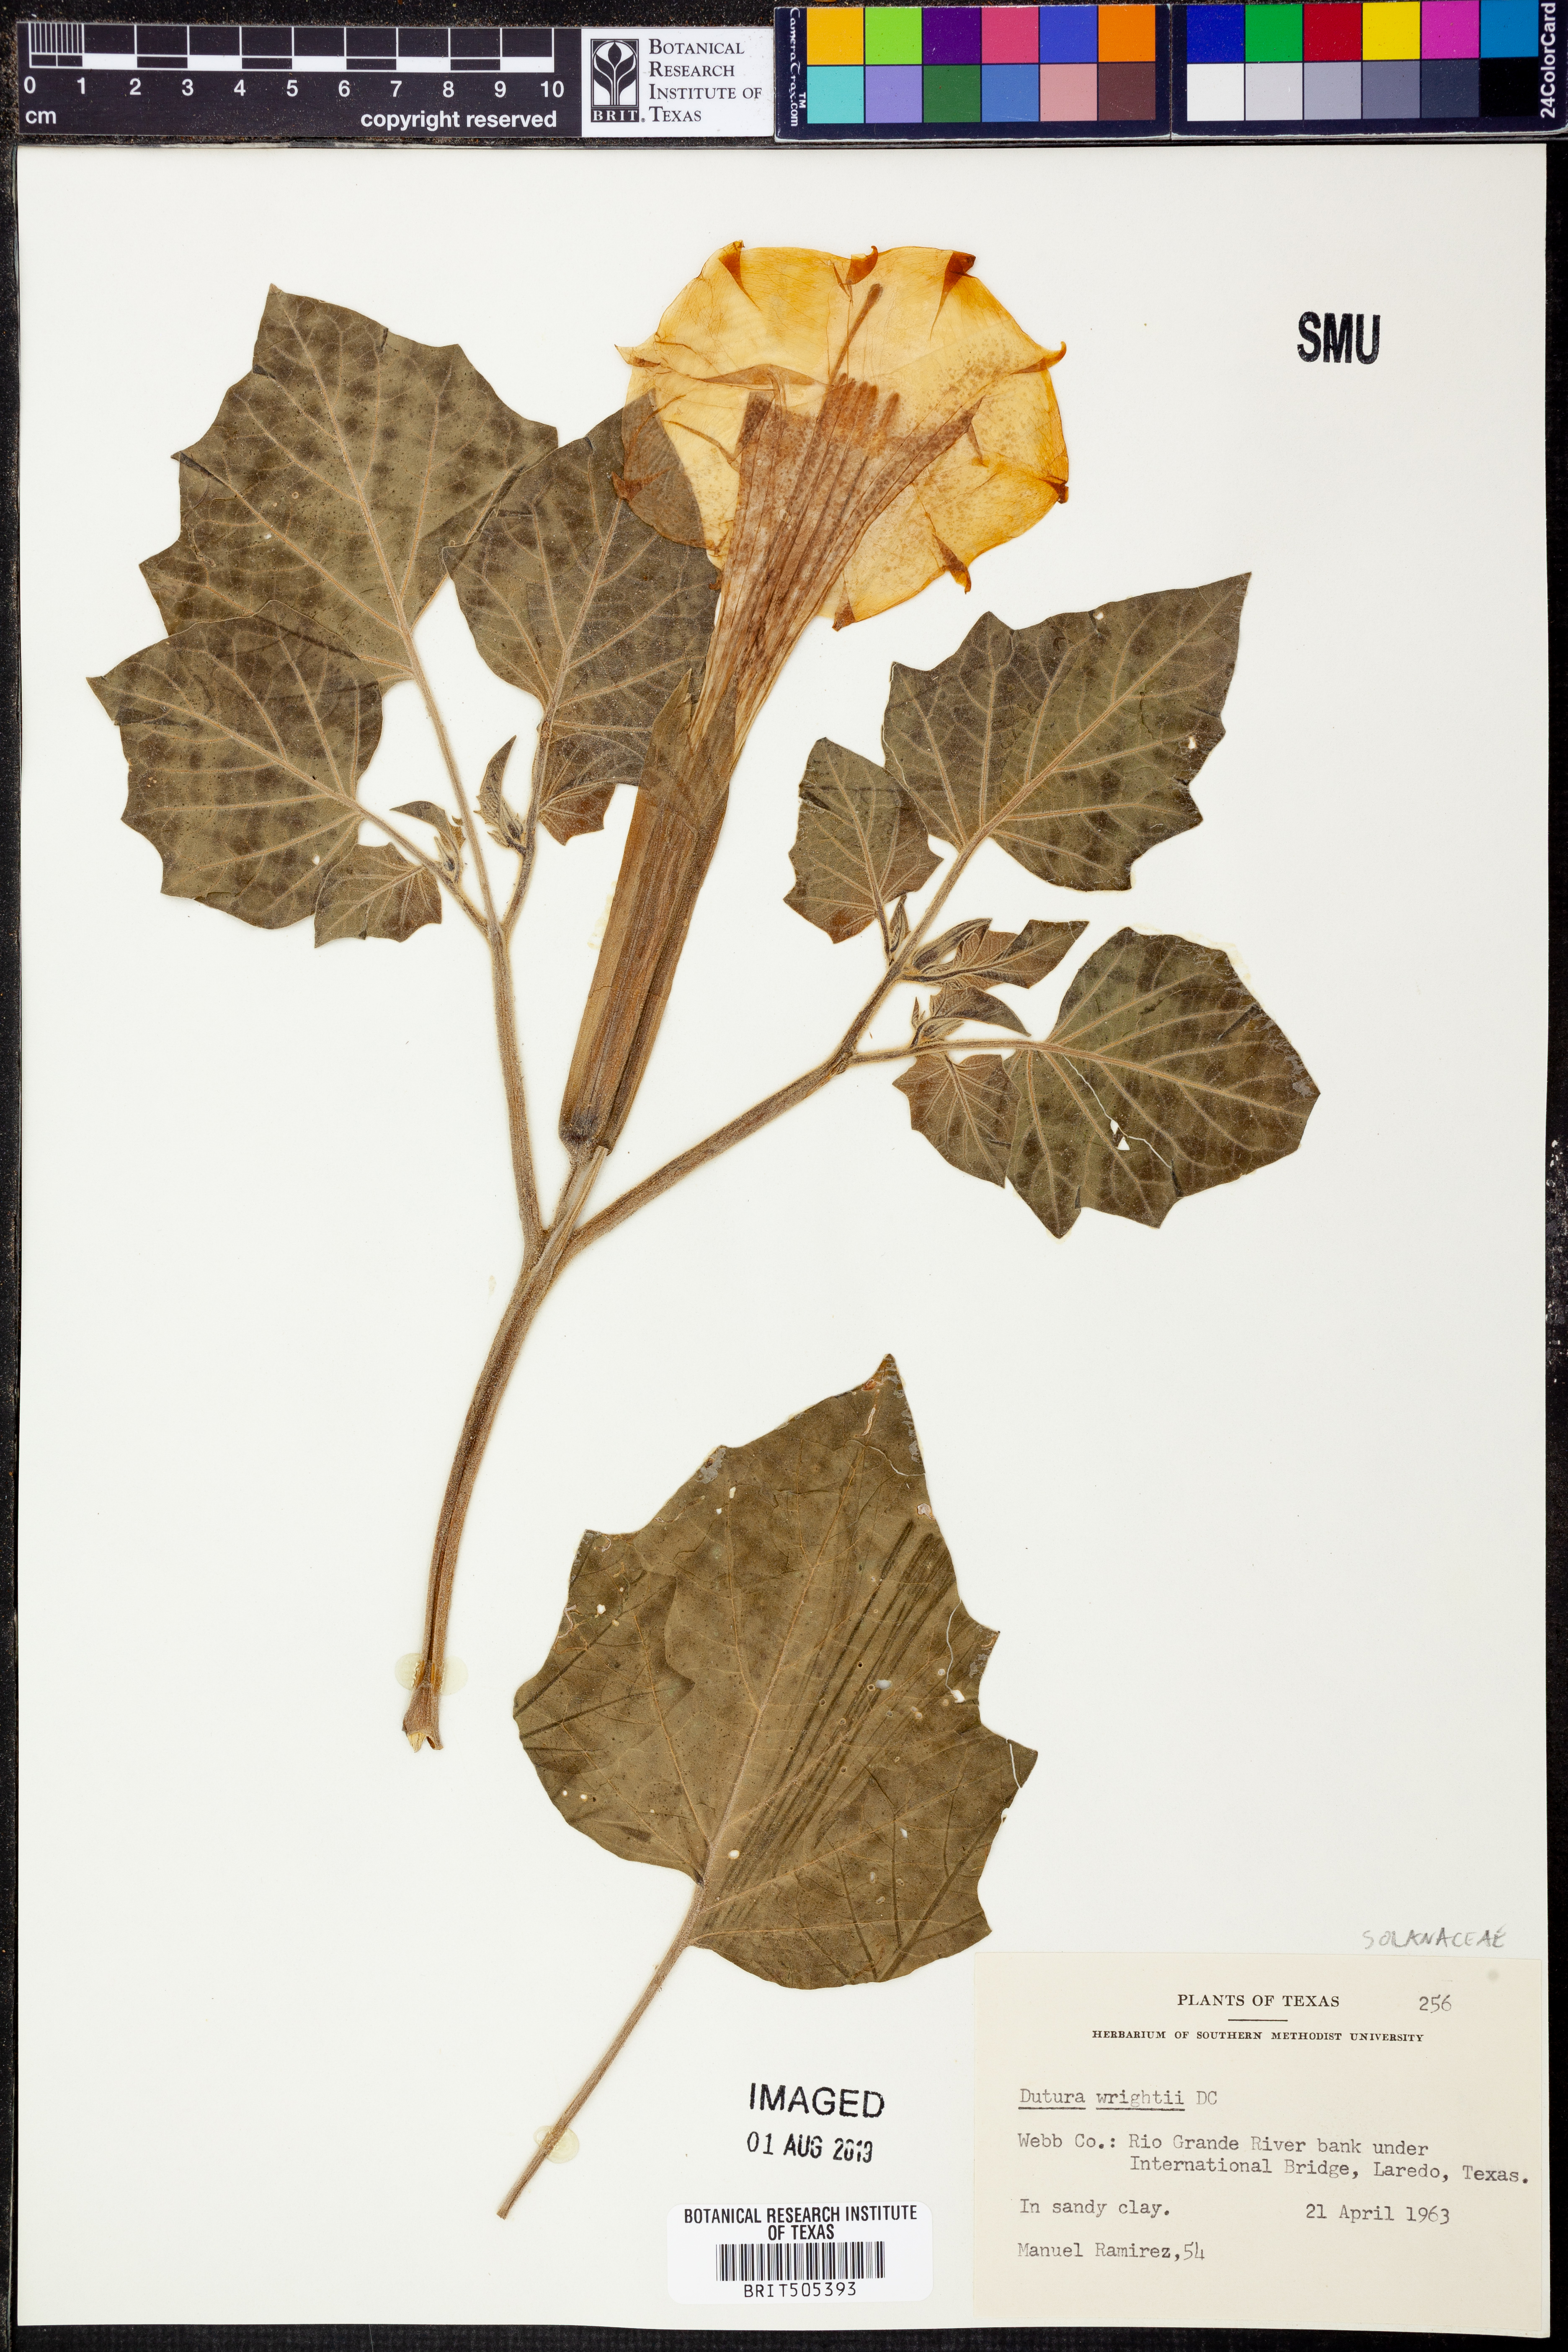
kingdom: Plantae
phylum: Tracheophyta
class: Magnoliopsida
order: Solanales
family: Solanaceae
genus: Datura
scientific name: Datura wrightii
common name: Sacred thorn-apple
